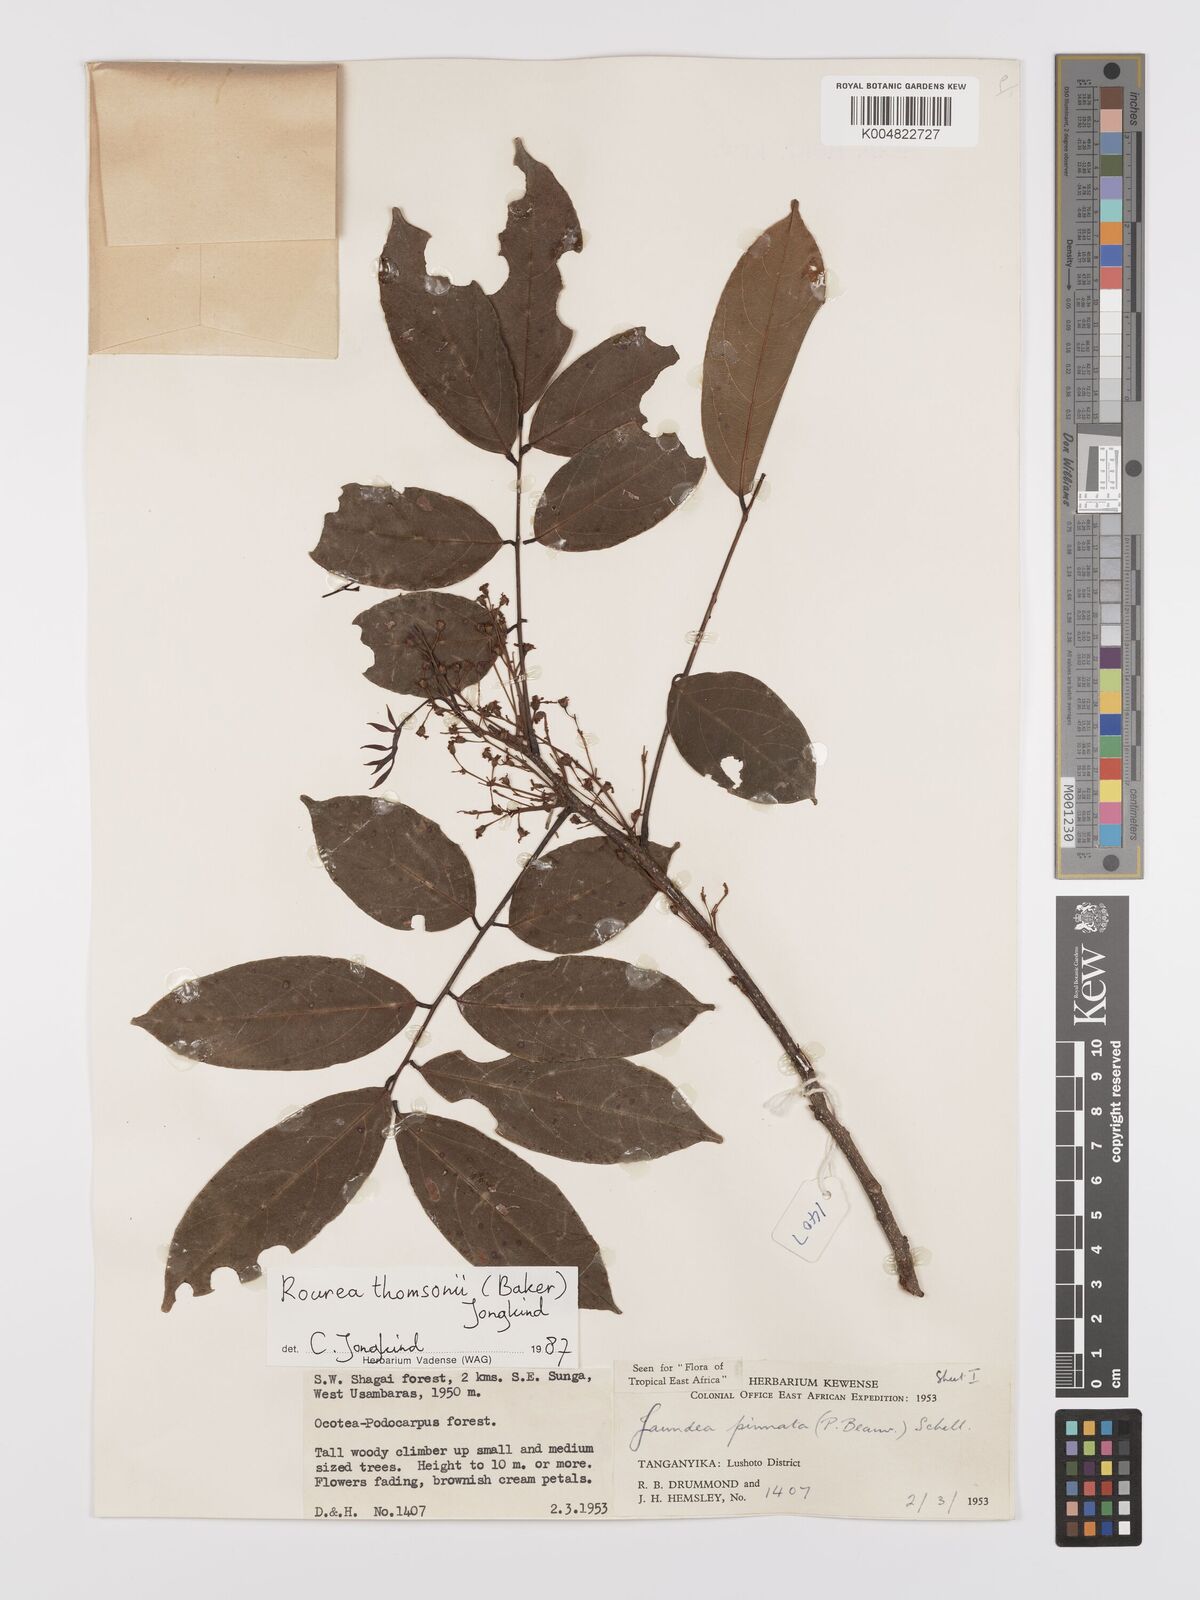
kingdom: Plantae
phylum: Tracheophyta
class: Magnoliopsida
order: Oxalidales
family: Connaraceae
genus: Rourea
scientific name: Rourea pinnata
